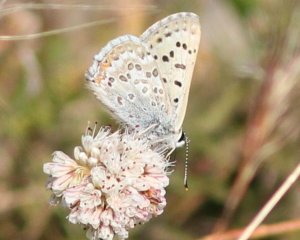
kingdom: Animalia
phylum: Arthropoda
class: Insecta
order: Lepidoptera
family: Lycaenidae
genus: Lycaena
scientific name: Lycaena editha
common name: Edith's Copper
